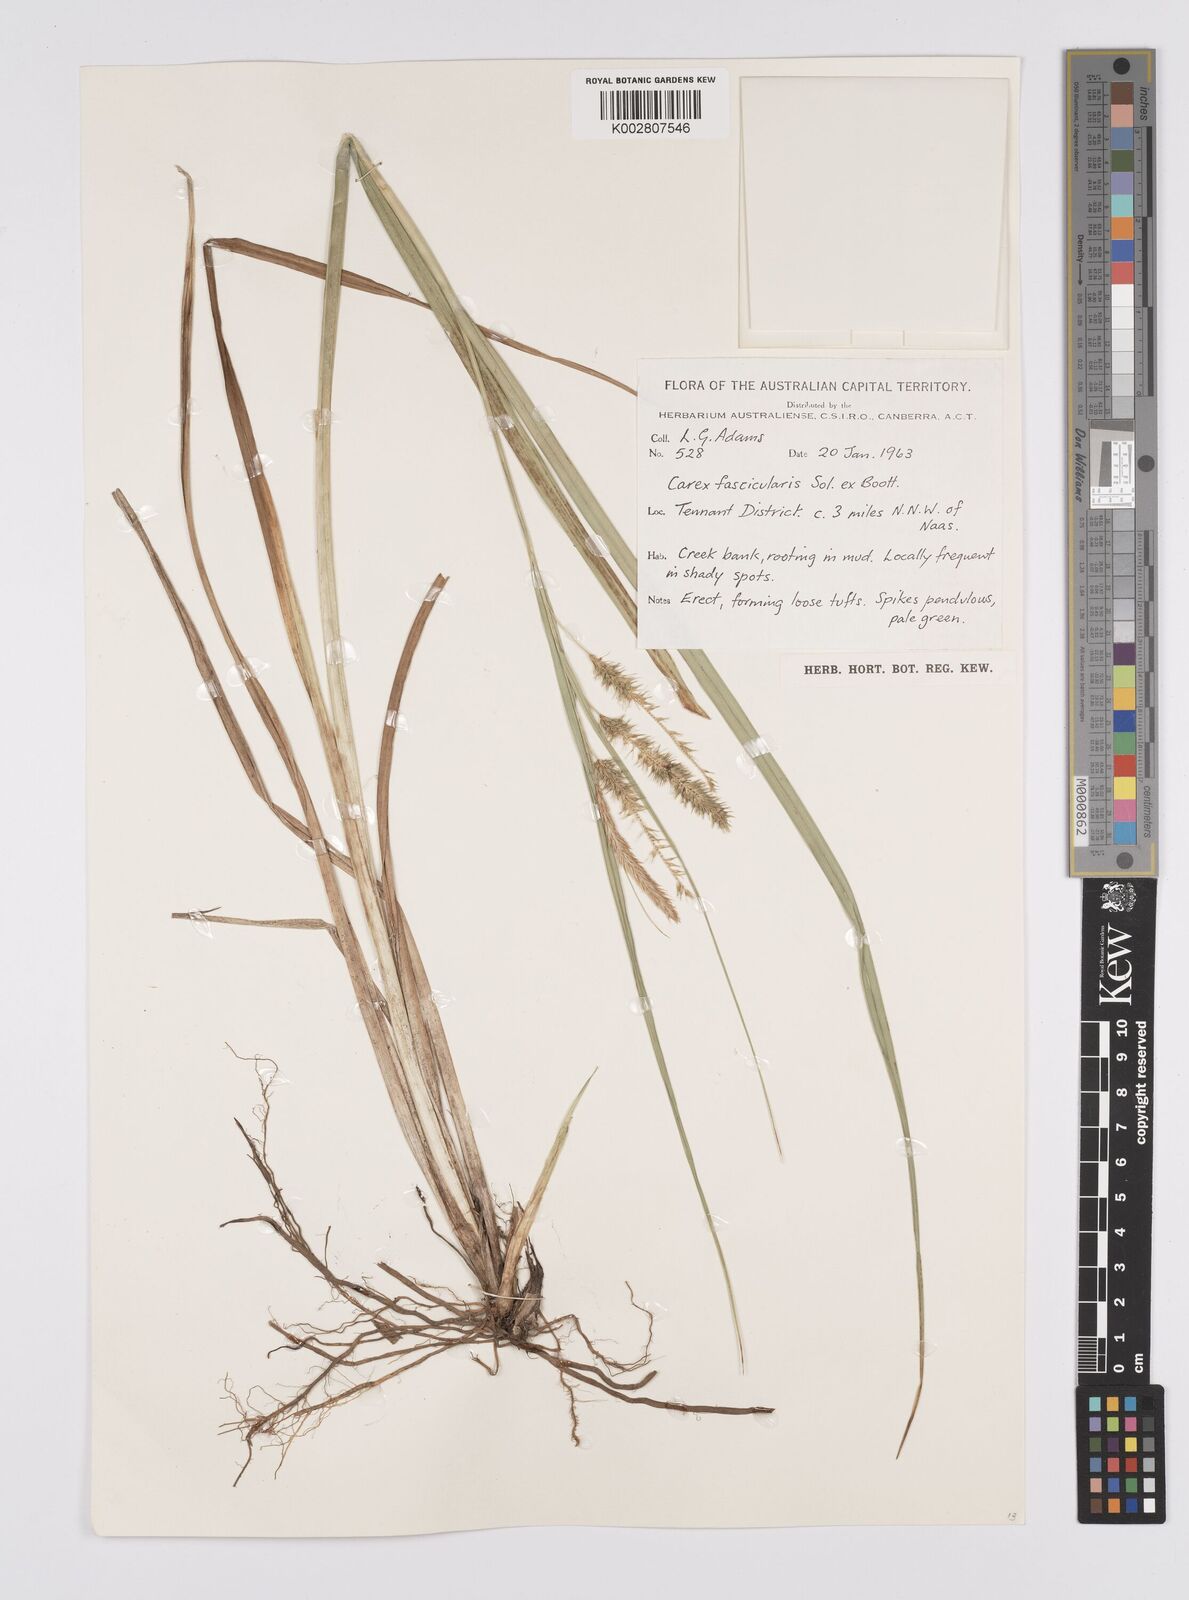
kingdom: Plantae
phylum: Tracheophyta
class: Liliopsida
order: Poales
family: Cyperaceae
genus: Carex
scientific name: Carex fascicularis
